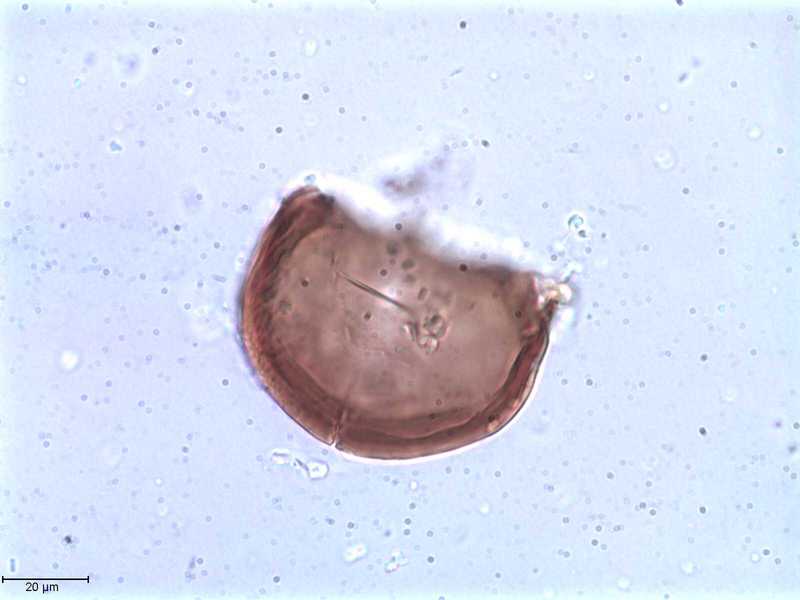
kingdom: Animalia
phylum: Arthropoda
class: Arachnida
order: Sarcoptiformes
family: Tegoribatidae
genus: Plakoribates
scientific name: Plakoribates multicuspidatus
